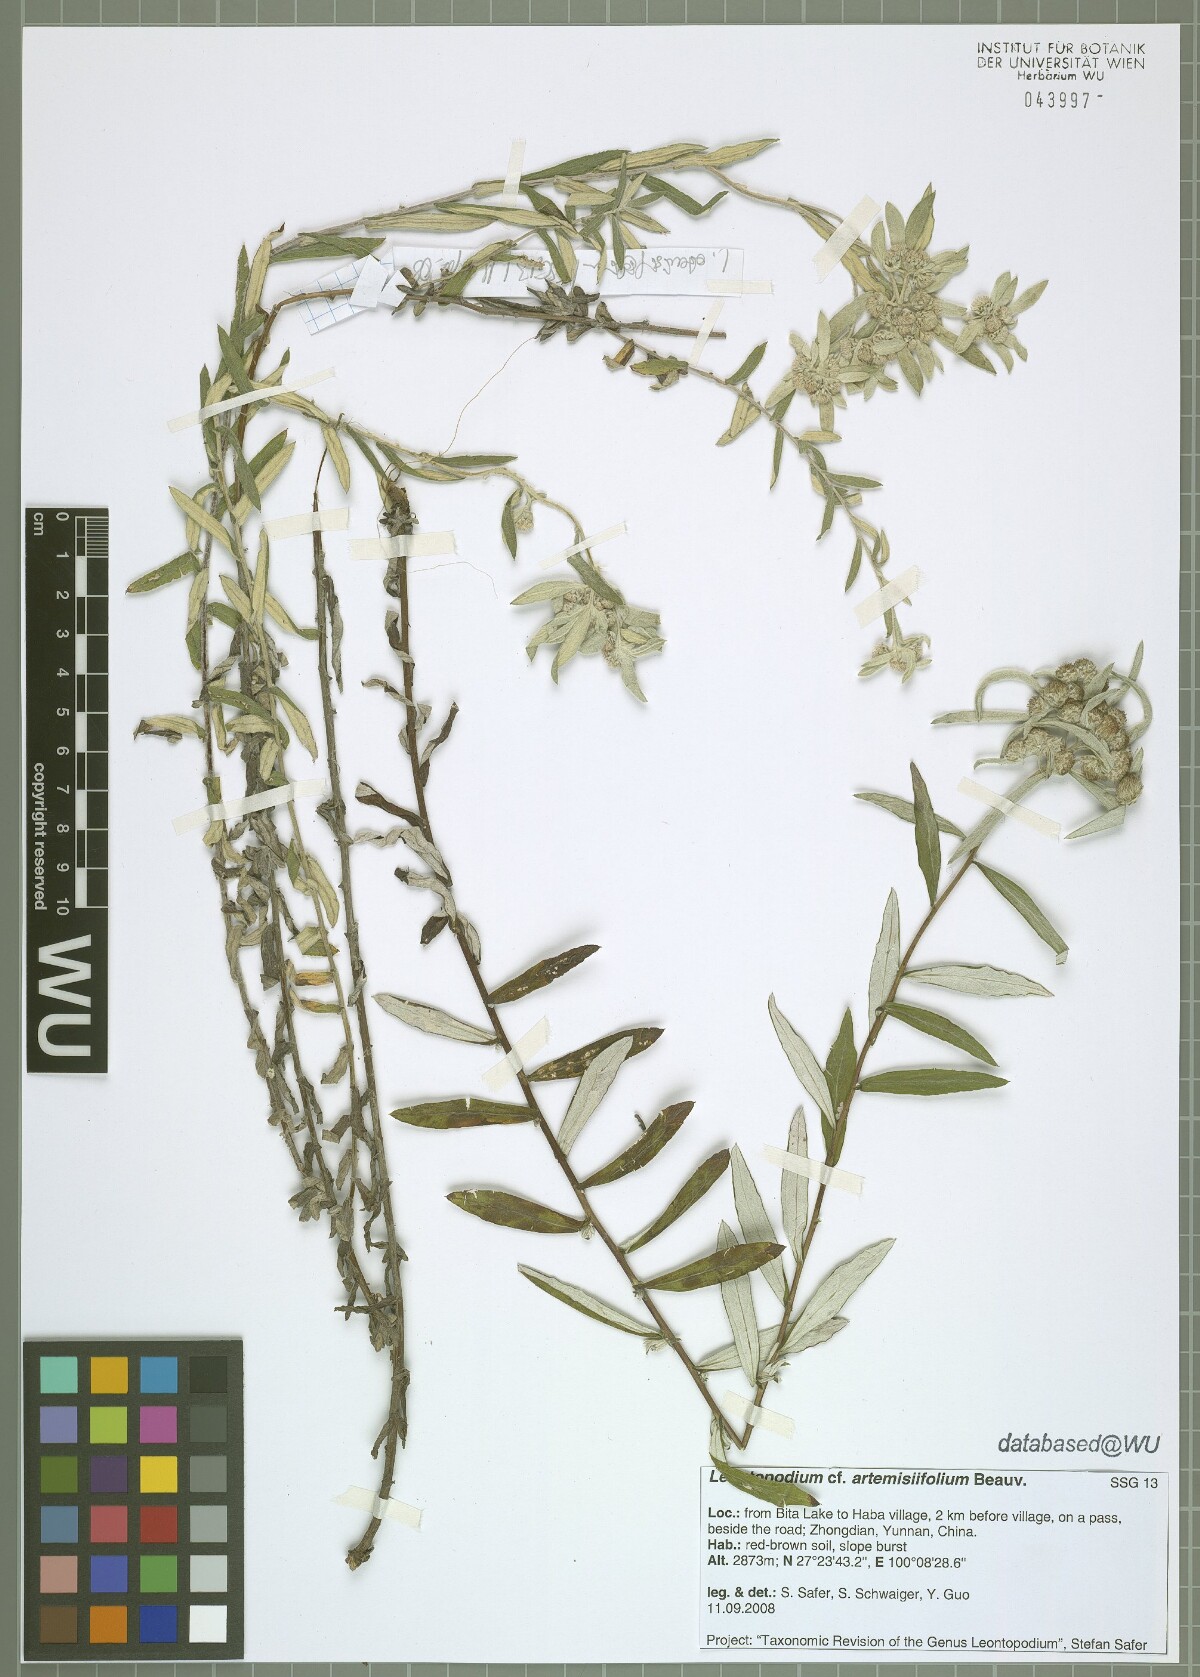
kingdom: Plantae
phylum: Tracheophyta
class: Magnoliopsida
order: Asterales
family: Asteraceae
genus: Leontopodium
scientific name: Leontopodium artemisiifolium
